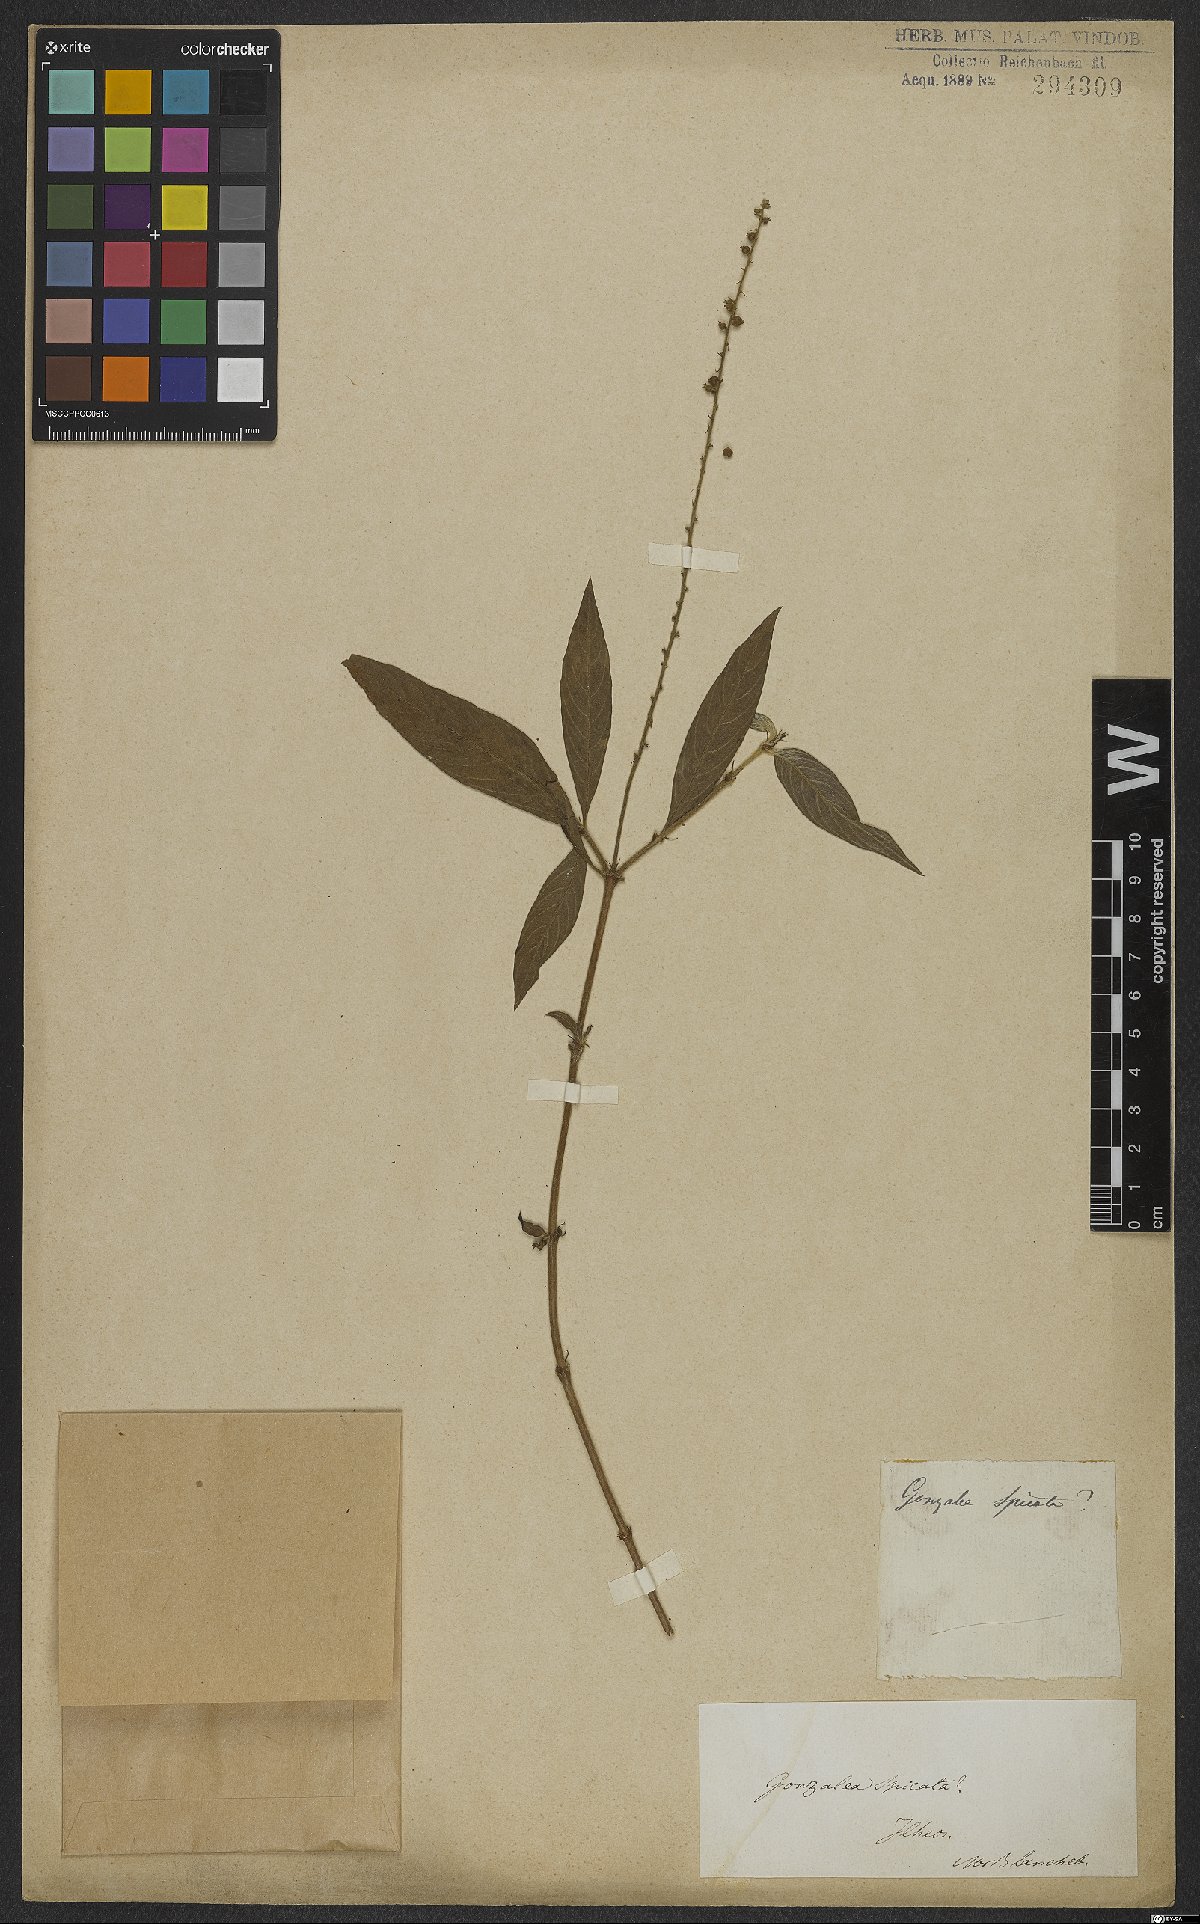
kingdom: Plantae
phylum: Tracheophyta
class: Magnoliopsida
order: Gentianales
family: Rubiaceae
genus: Gonzalagunia
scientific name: Gonzalagunia hirsuta
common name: Mata de mariposa
